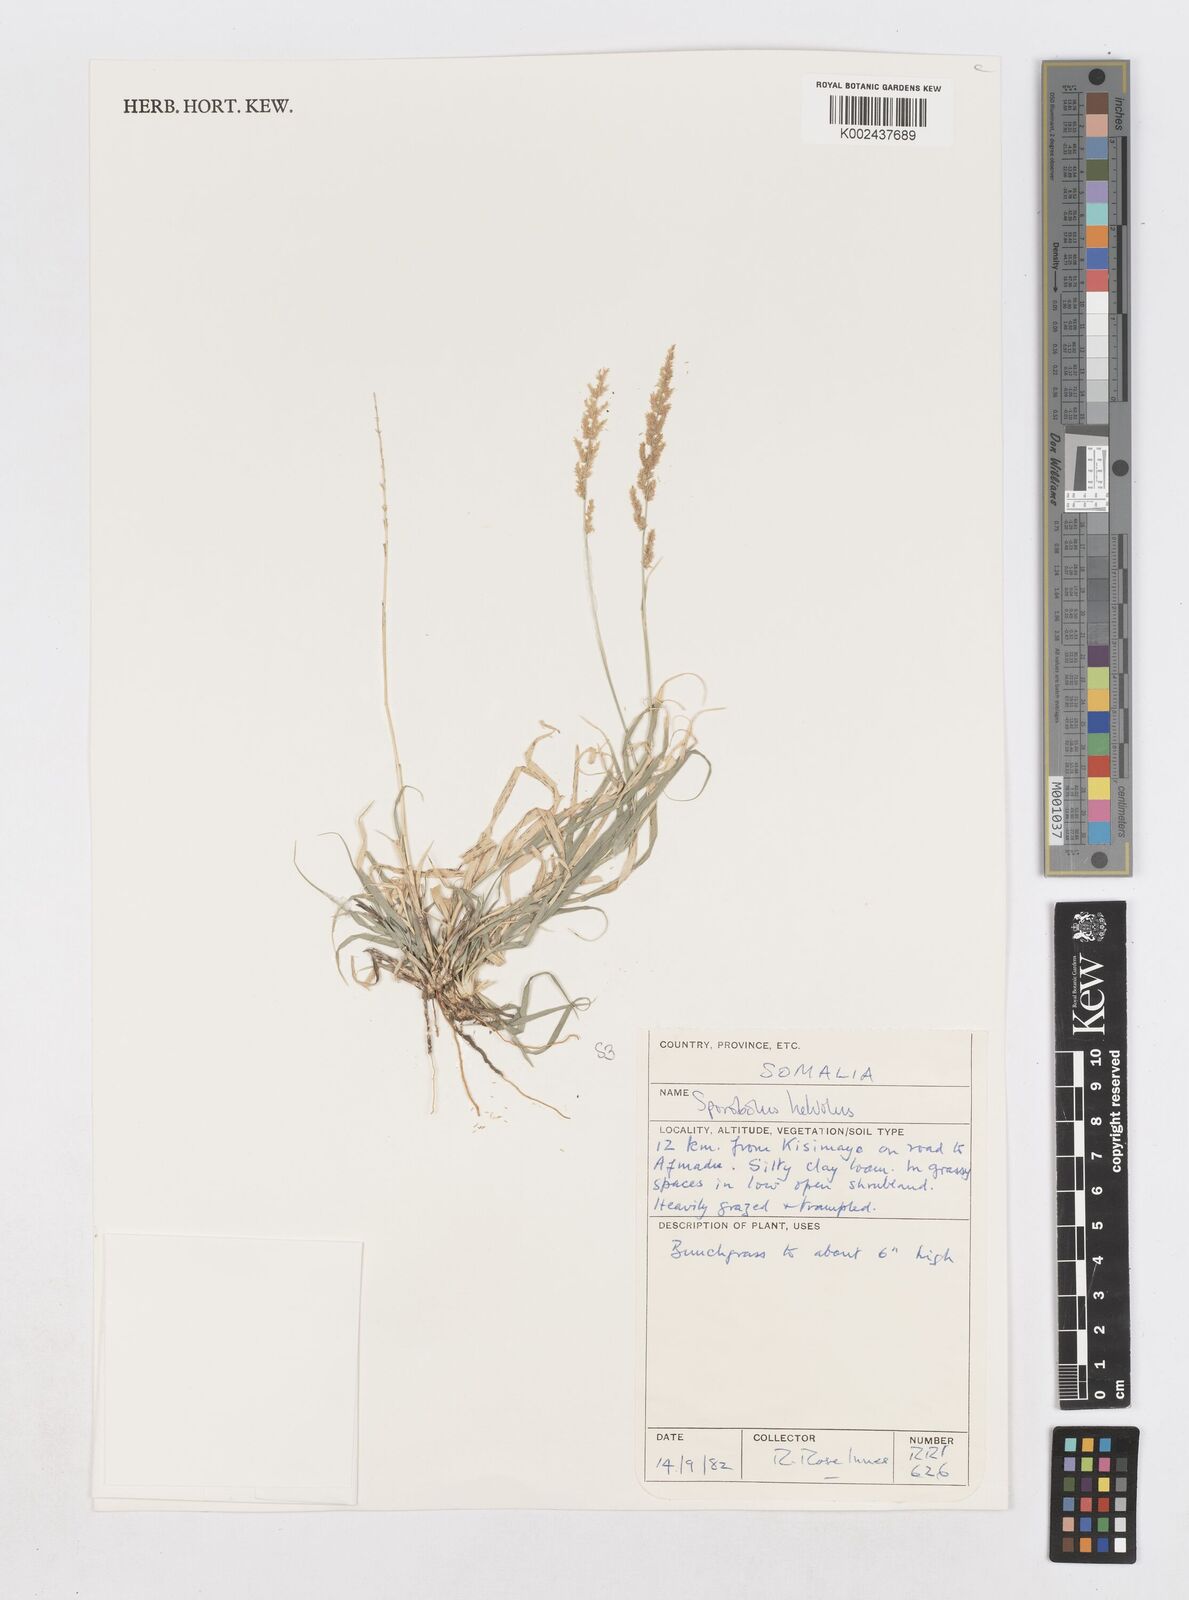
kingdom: Plantae
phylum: Tracheophyta
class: Liliopsida
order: Poales
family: Poaceae
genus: Sporobolus
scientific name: Sporobolus helvolus
